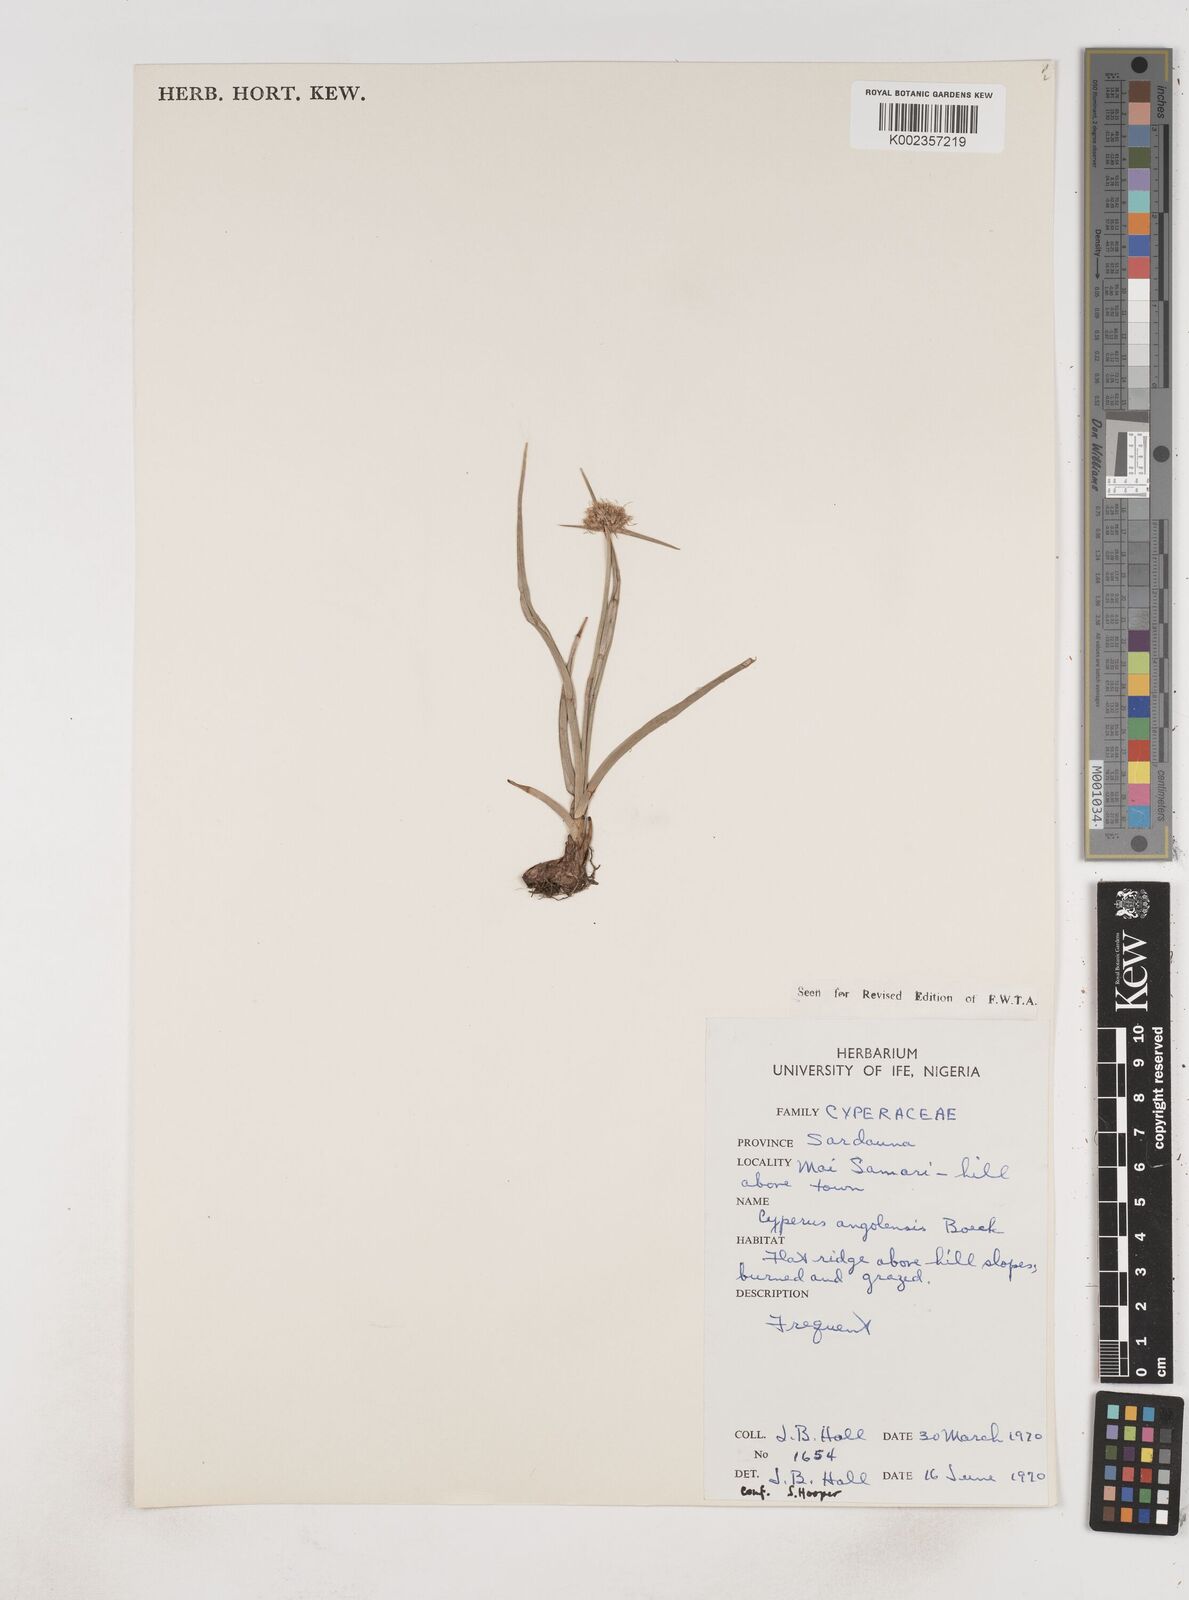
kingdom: Plantae
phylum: Tracheophyta
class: Liliopsida
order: Poales
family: Cyperaceae
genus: Cyperus
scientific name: Cyperus angolensis
